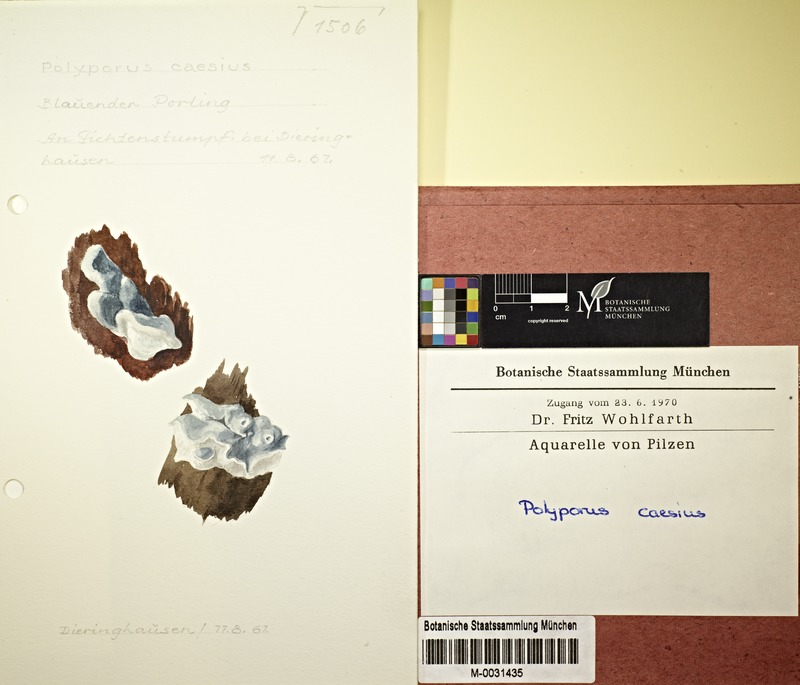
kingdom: Fungi
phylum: Basidiomycota
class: Agaricomycetes
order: Polyporales
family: Polyporaceae
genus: Cyanosporus
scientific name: Cyanosporus caesius
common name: Blue cheese polypore
